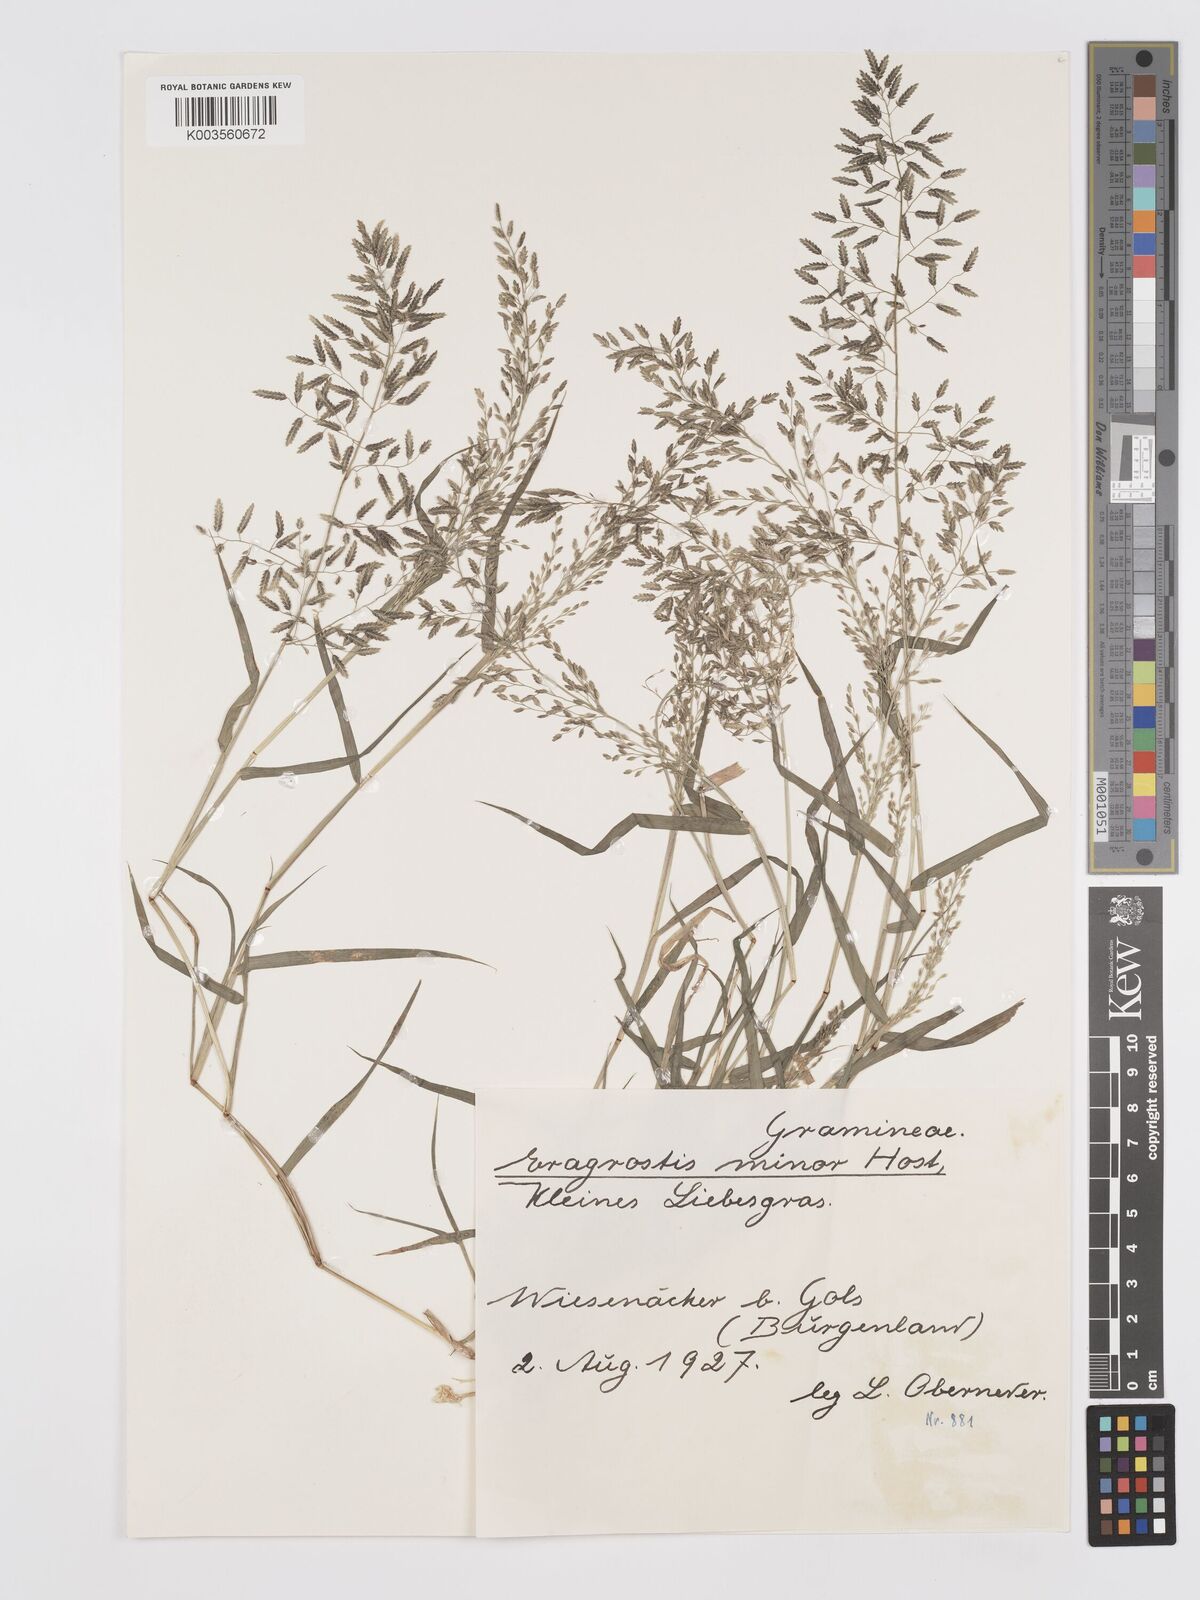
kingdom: Plantae
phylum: Tracheophyta
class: Liliopsida
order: Poales
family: Poaceae
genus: Eragrostis
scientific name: Eragrostis minor
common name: Small love-grass
